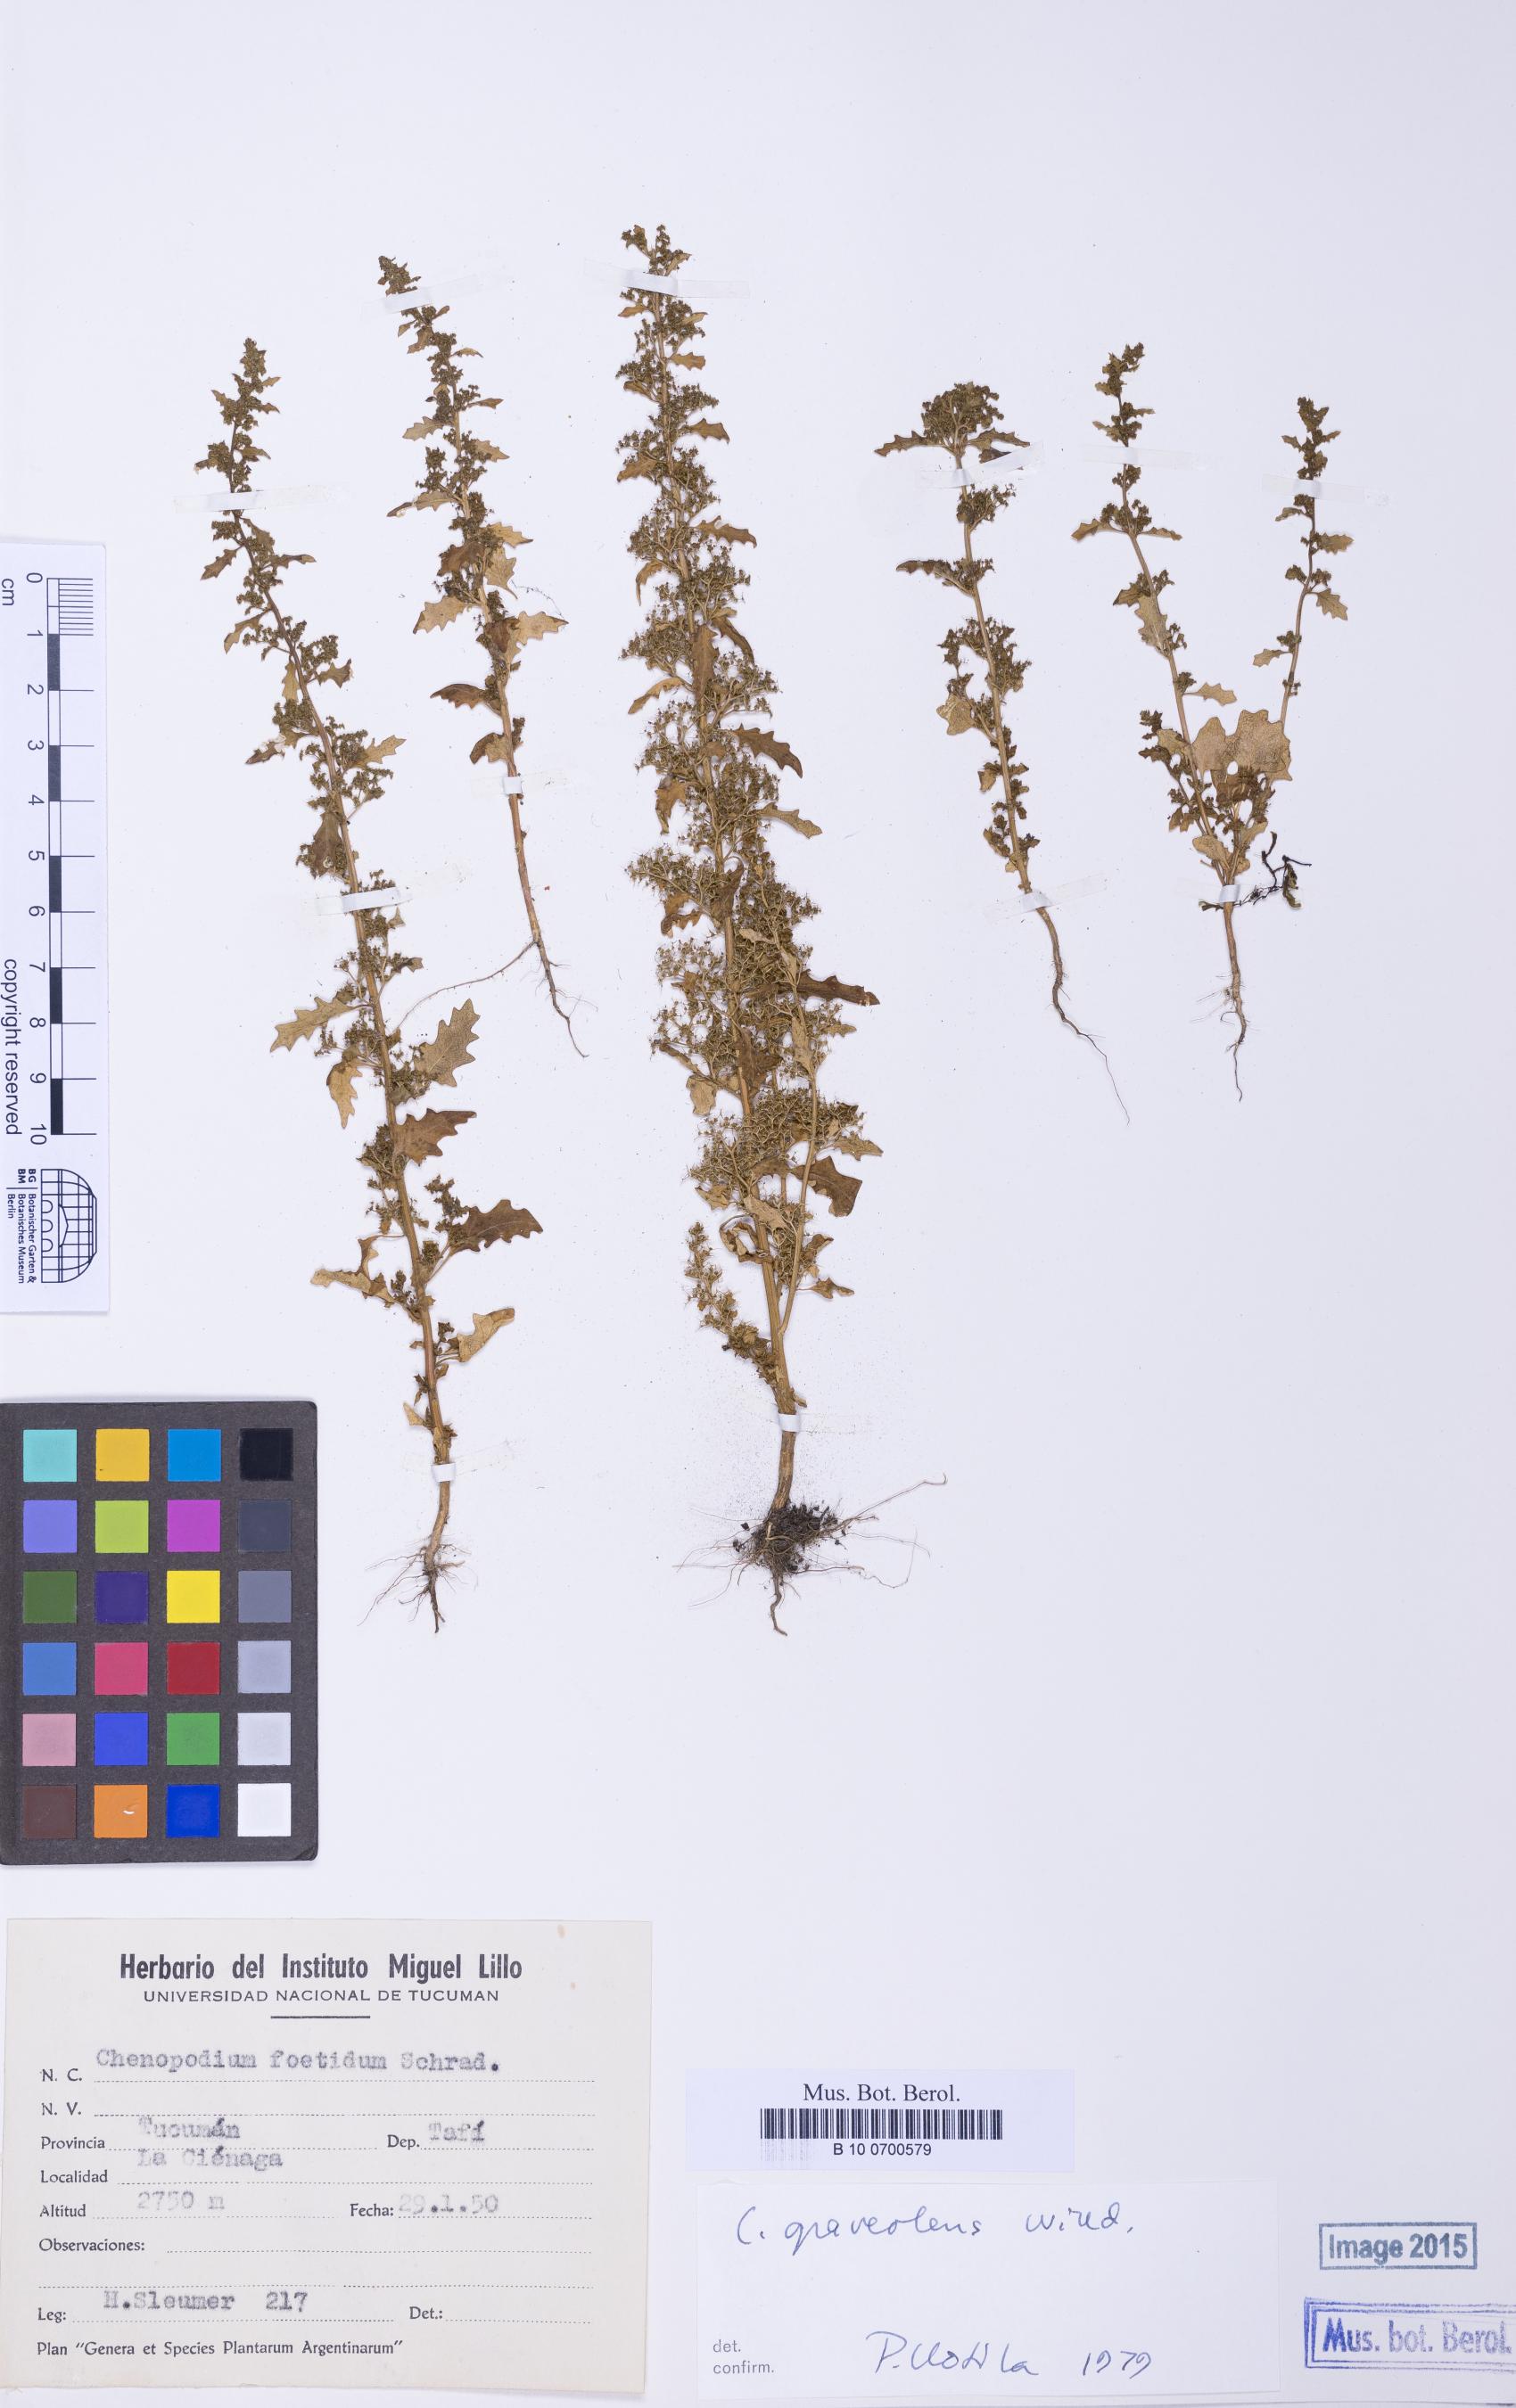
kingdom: Plantae
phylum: Tracheophyta
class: Magnoliopsida
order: Caryophyllales
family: Amaranthaceae
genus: Dysphania
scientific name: Dysphania mandonii
